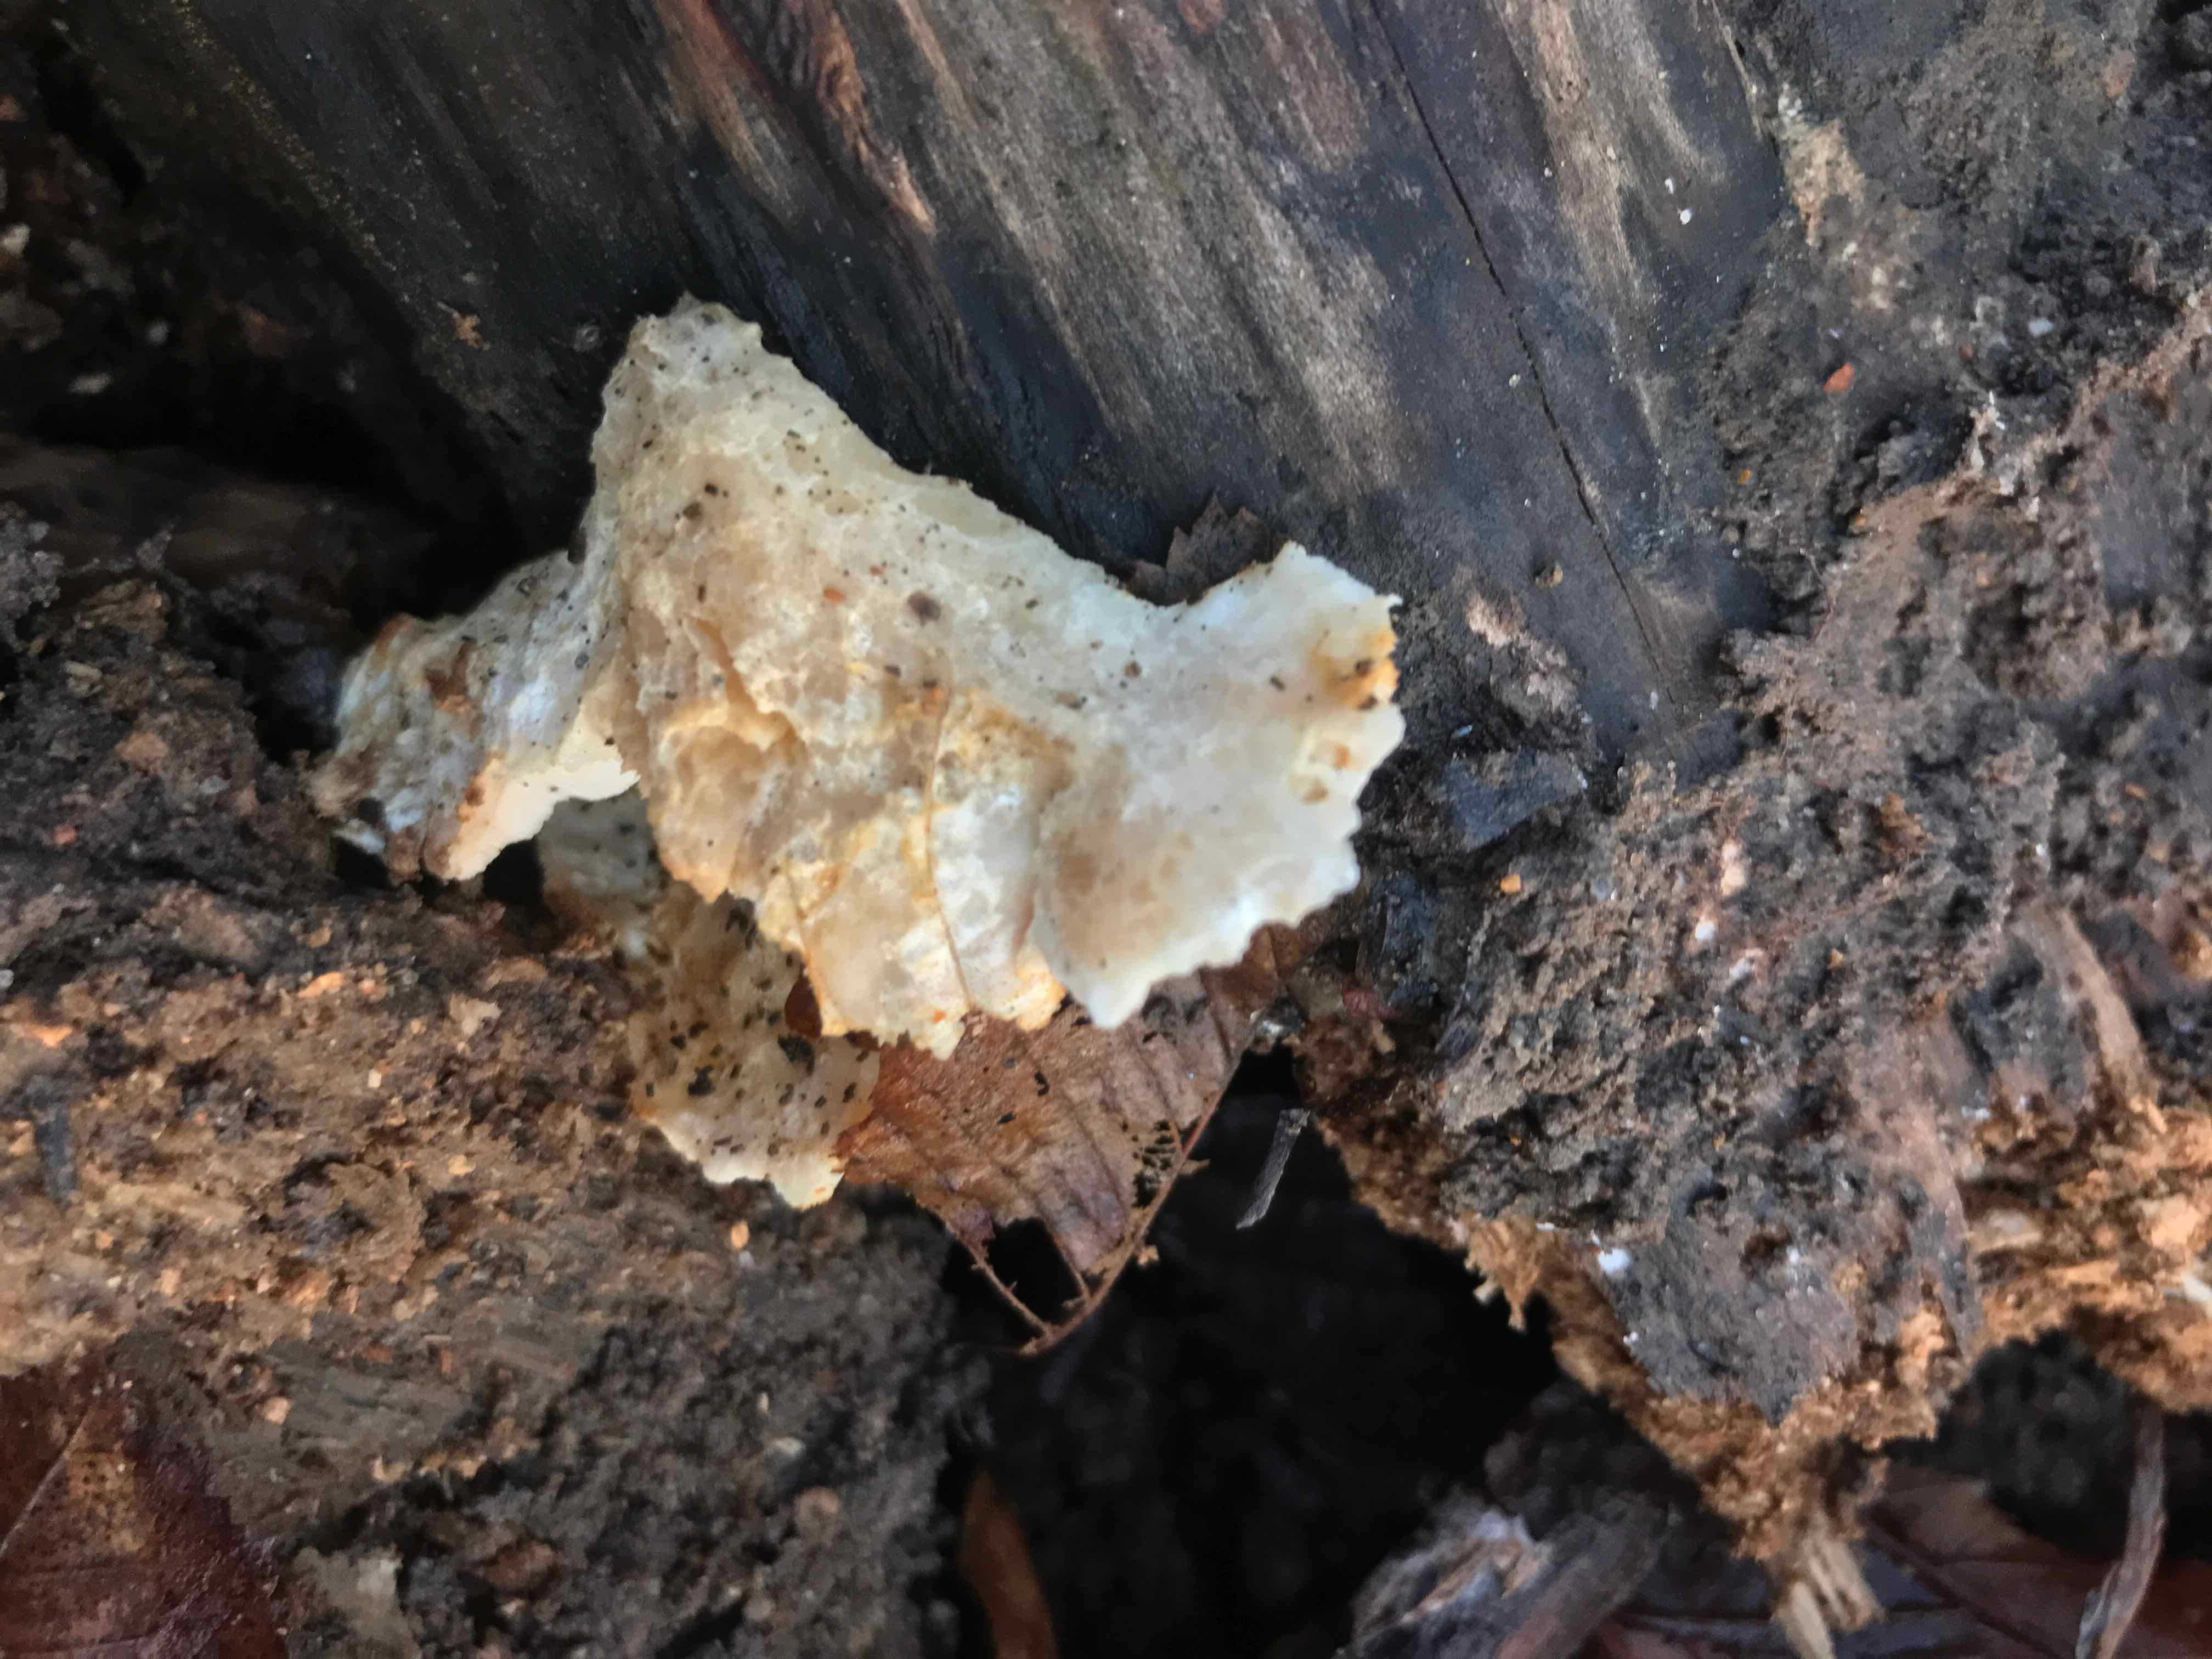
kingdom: Fungi
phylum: Basidiomycota
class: Agaricomycetes
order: Polyporales
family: Incrustoporiaceae
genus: Tyromyces
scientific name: Tyromyces lacteus
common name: mælkehvid kødporesvamp
